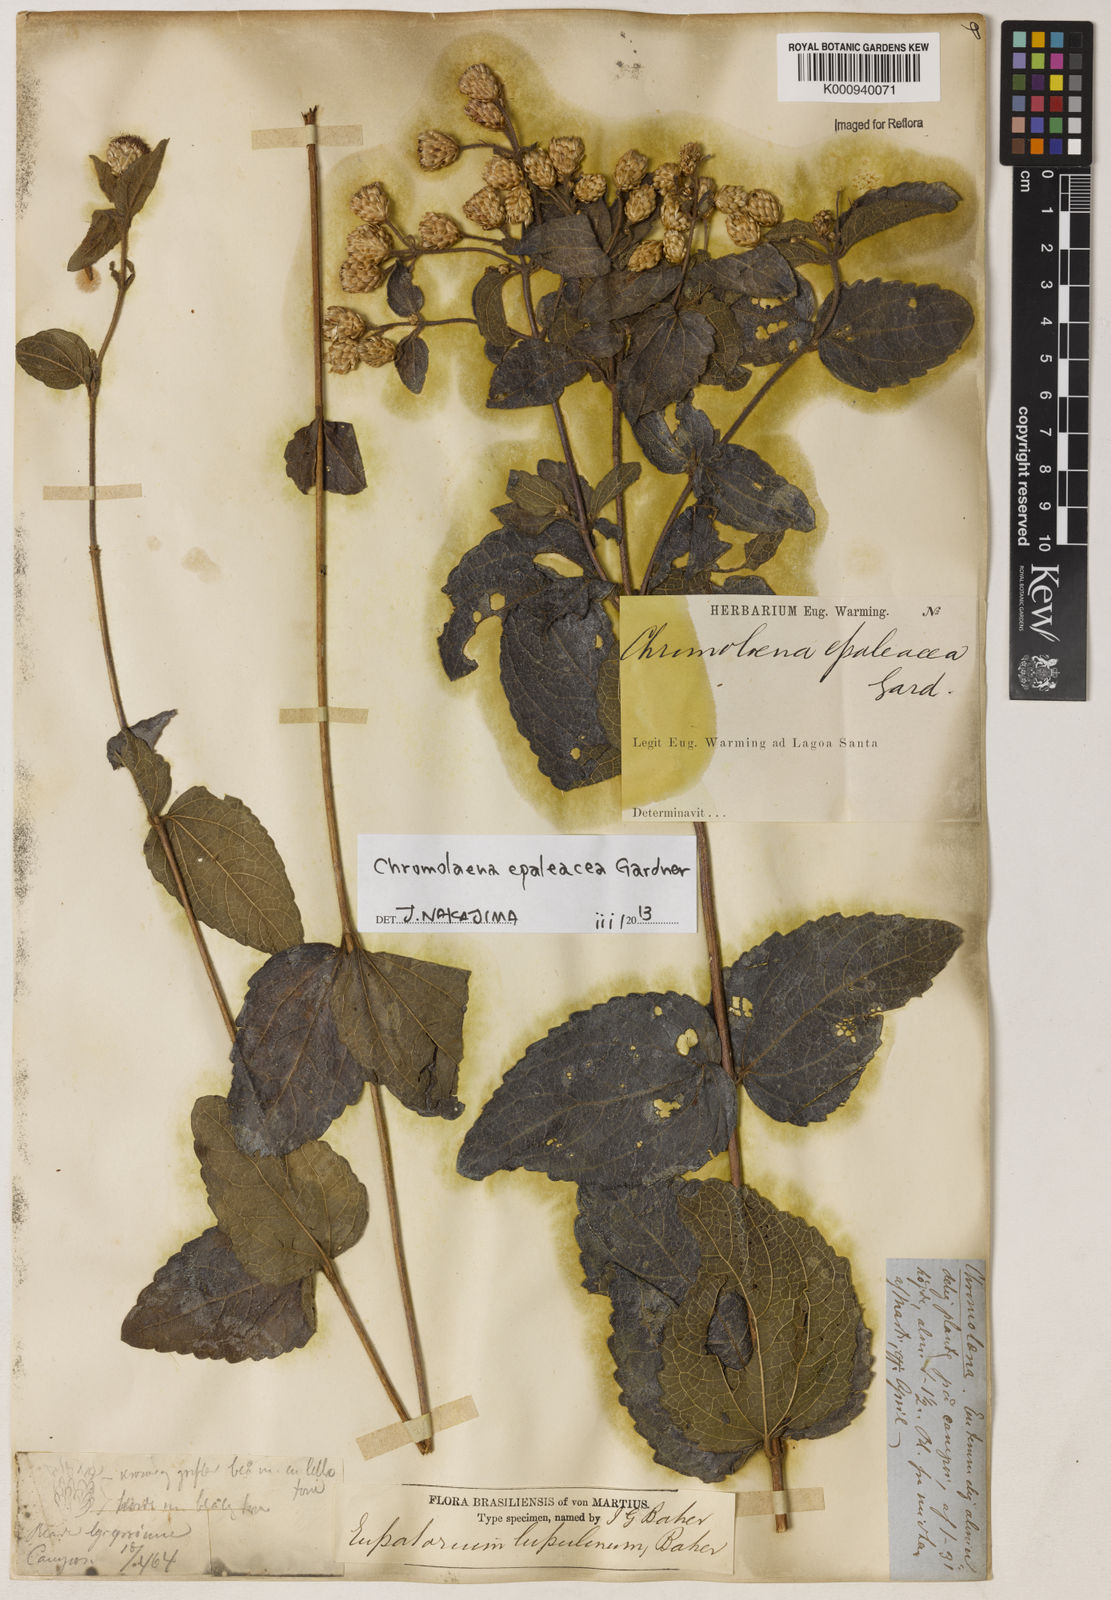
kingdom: Plantae
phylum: Tracheophyta
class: Magnoliopsida
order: Asterales
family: Asteraceae
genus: Chromolaena
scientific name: Chromolaena epaleacea
